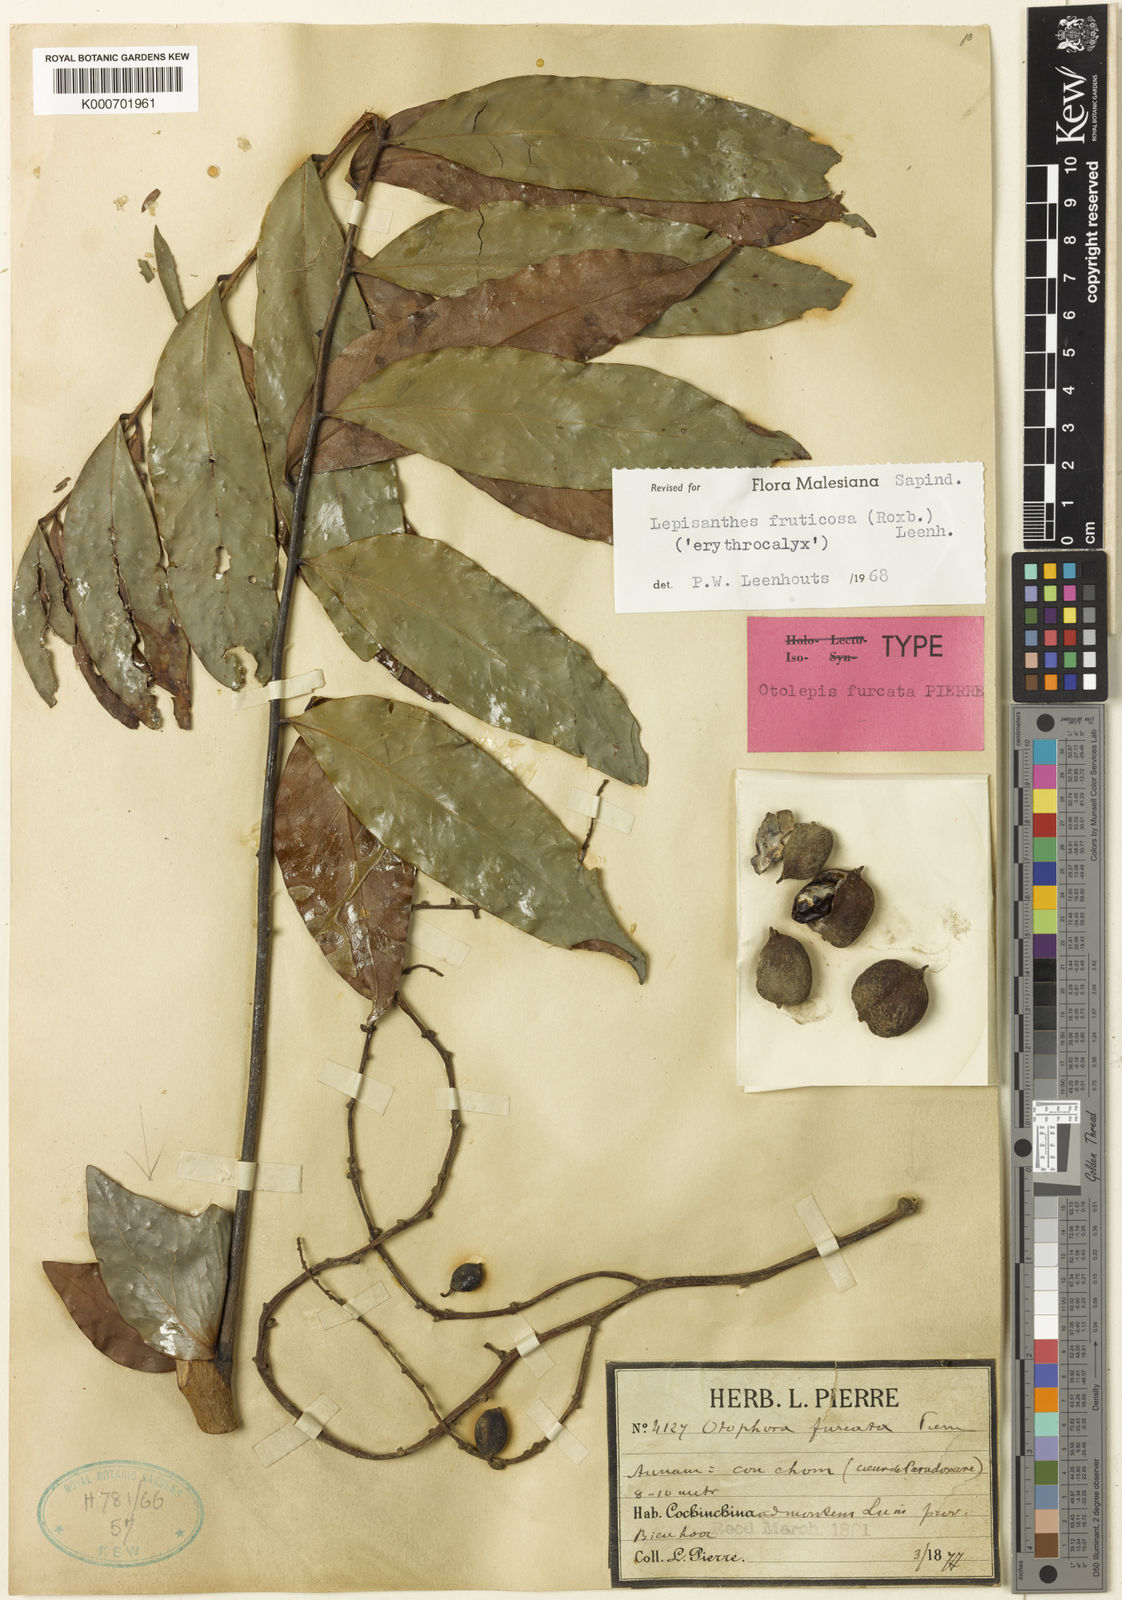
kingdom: Plantae
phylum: Tracheophyta
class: Magnoliopsida
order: Sapindales
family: Sapindaceae
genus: Lepisanthes
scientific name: Lepisanthes fruticosa
